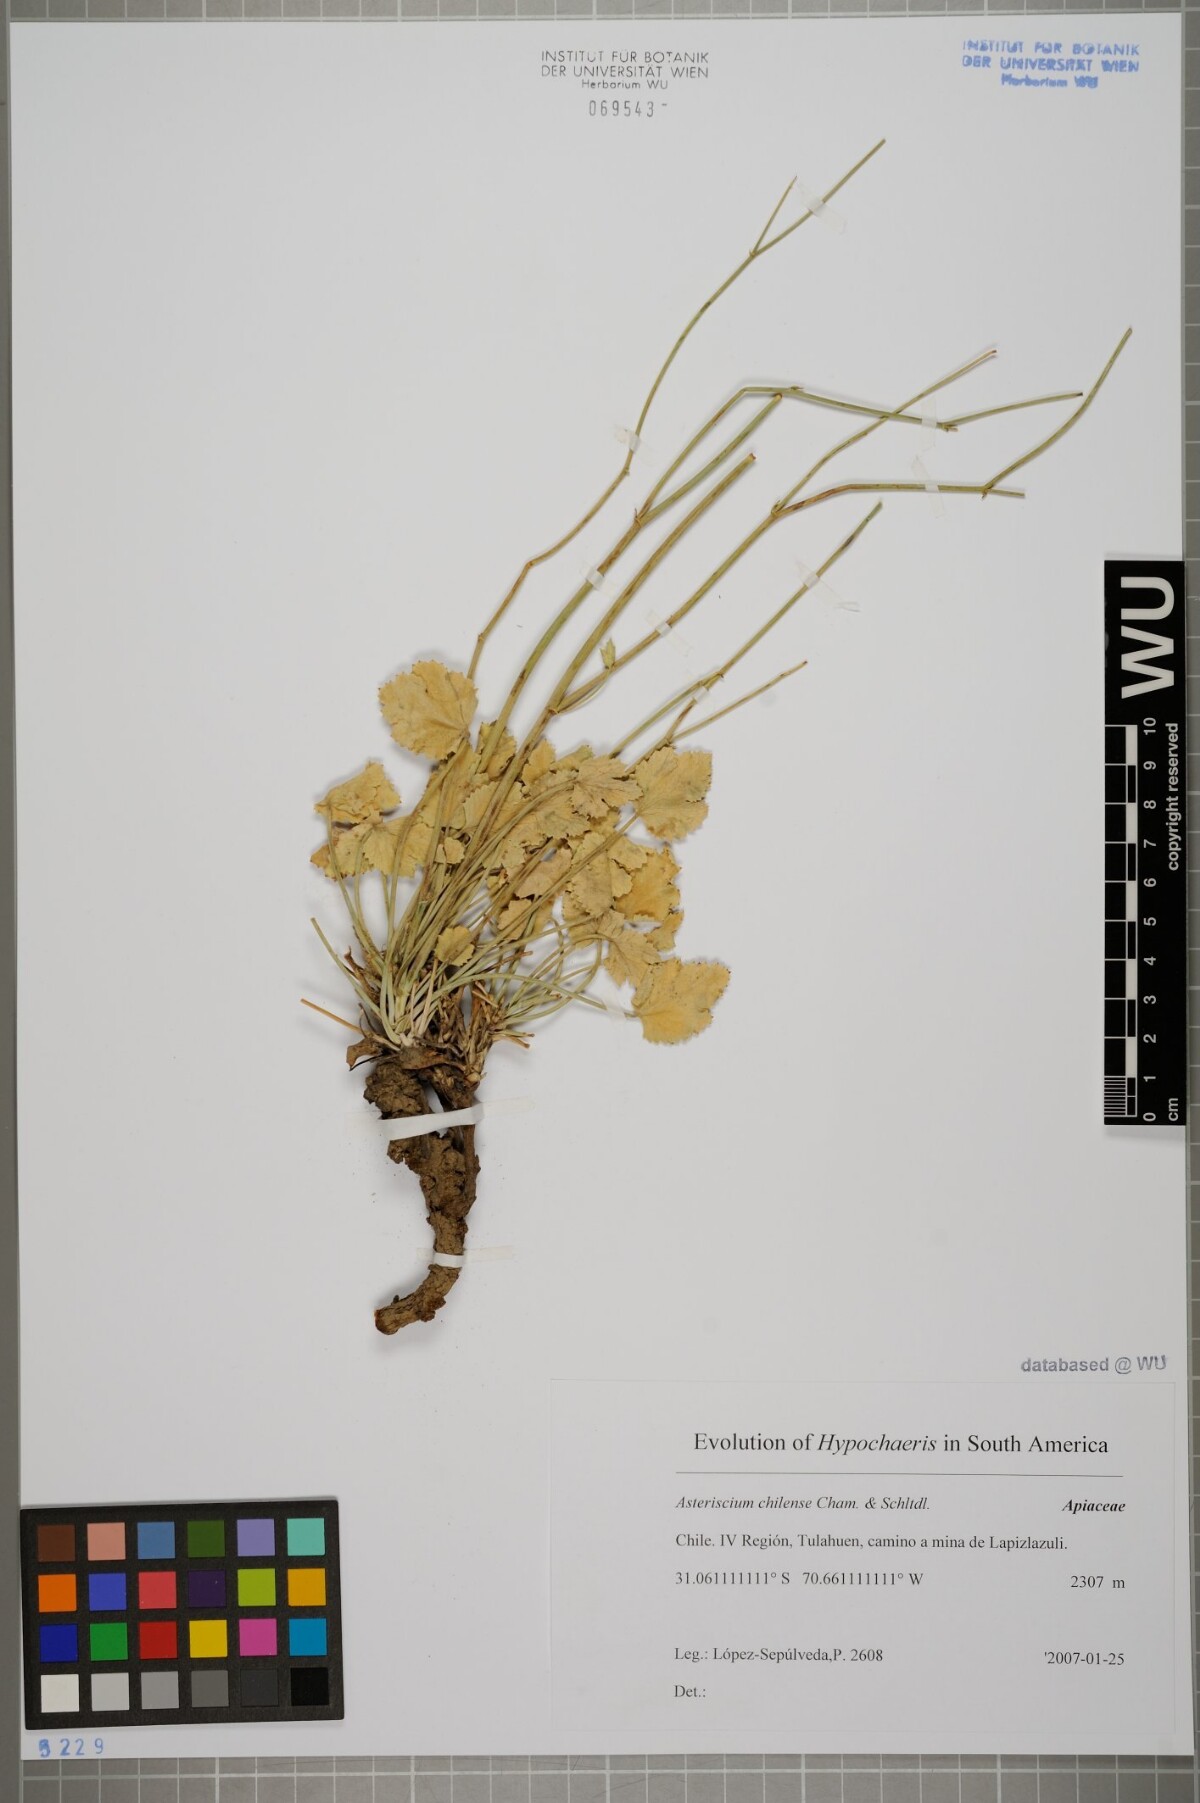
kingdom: Plantae
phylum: Tracheophyta
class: Magnoliopsida
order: Apiales
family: Apiaceae
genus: Asteriscium
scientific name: Asteriscium chilense
